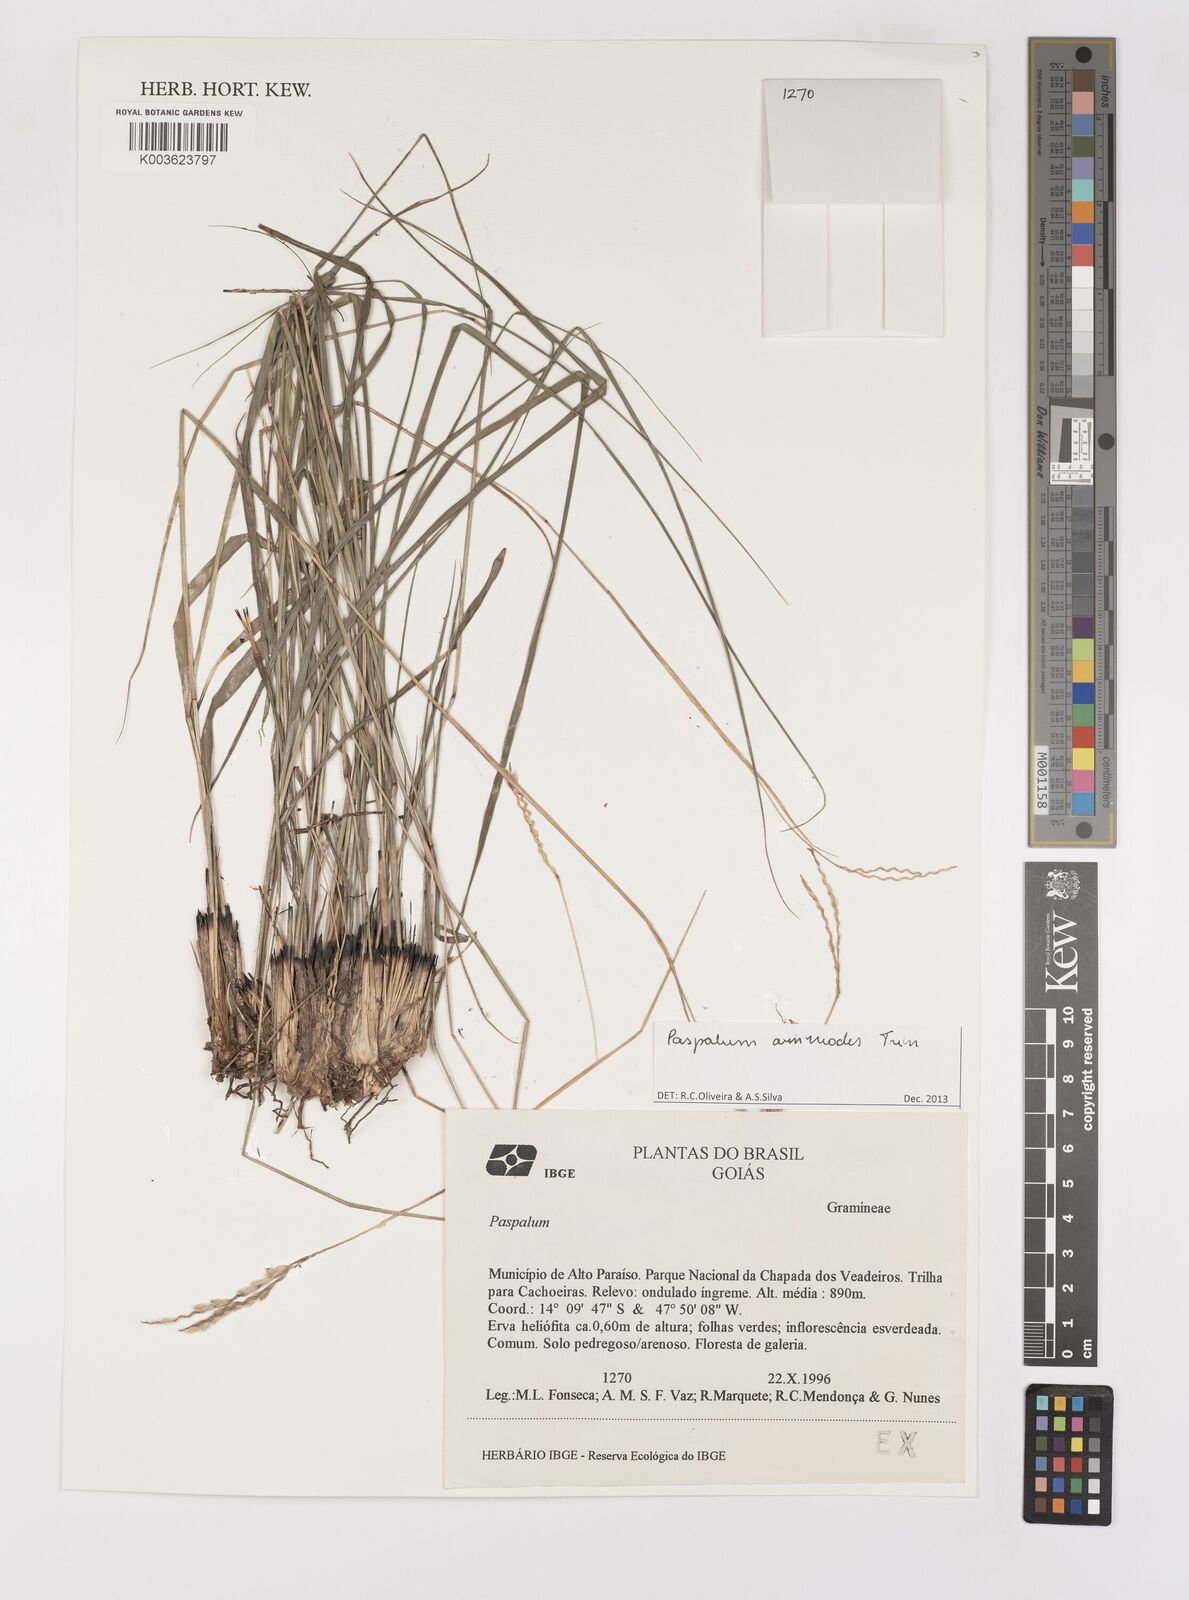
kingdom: Plantae
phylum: Tracheophyta
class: Liliopsida
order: Poales
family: Poaceae
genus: Paspalum
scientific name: Paspalum ammodes
